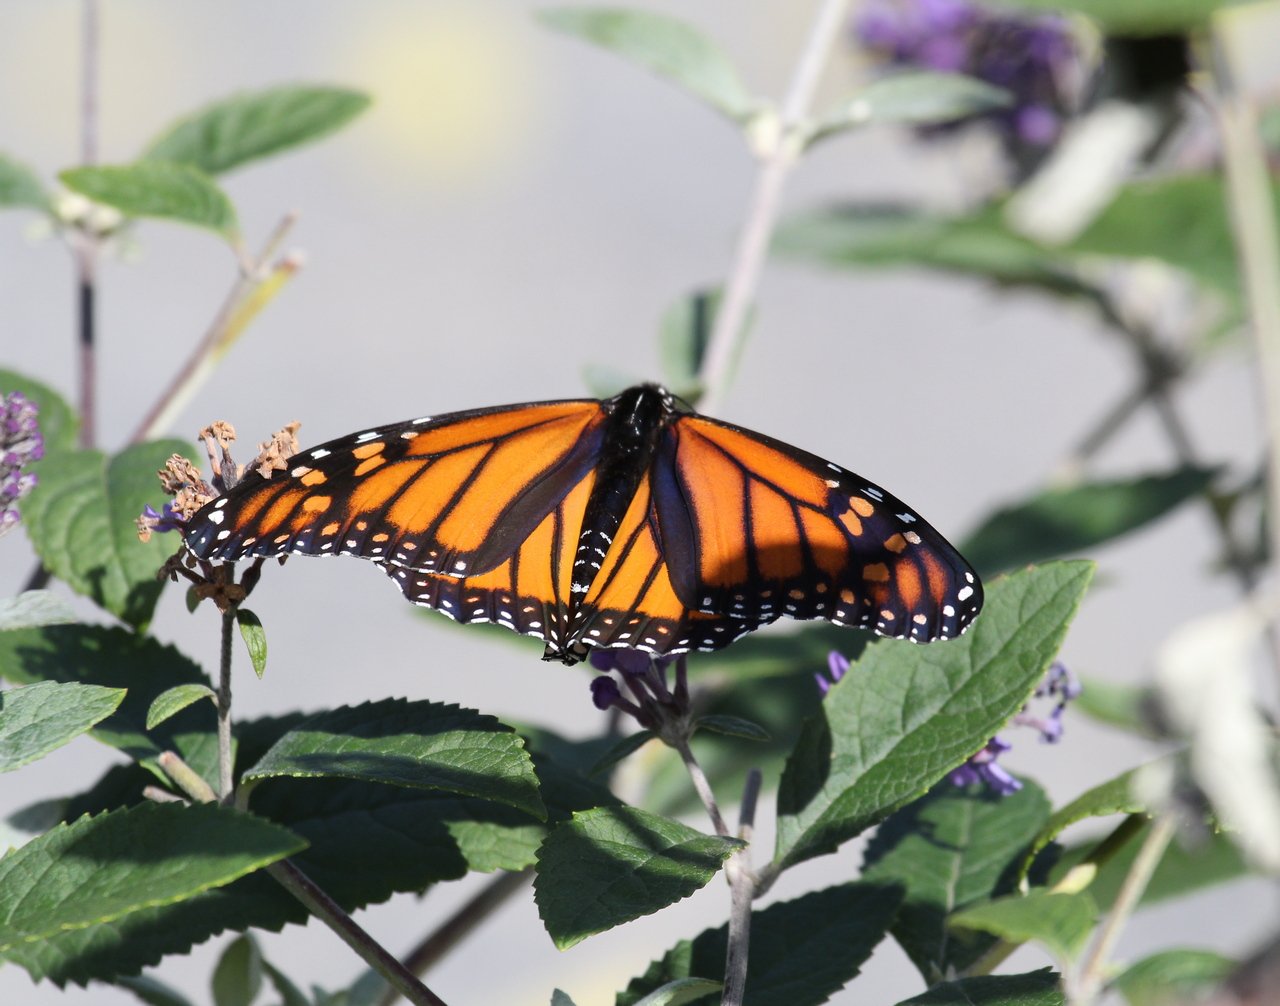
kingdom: Animalia
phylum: Arthropoda
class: Insecta
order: Lepidoptera
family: Nymphalidae
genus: Danaus
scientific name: Danaus plexippus
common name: Monarch
